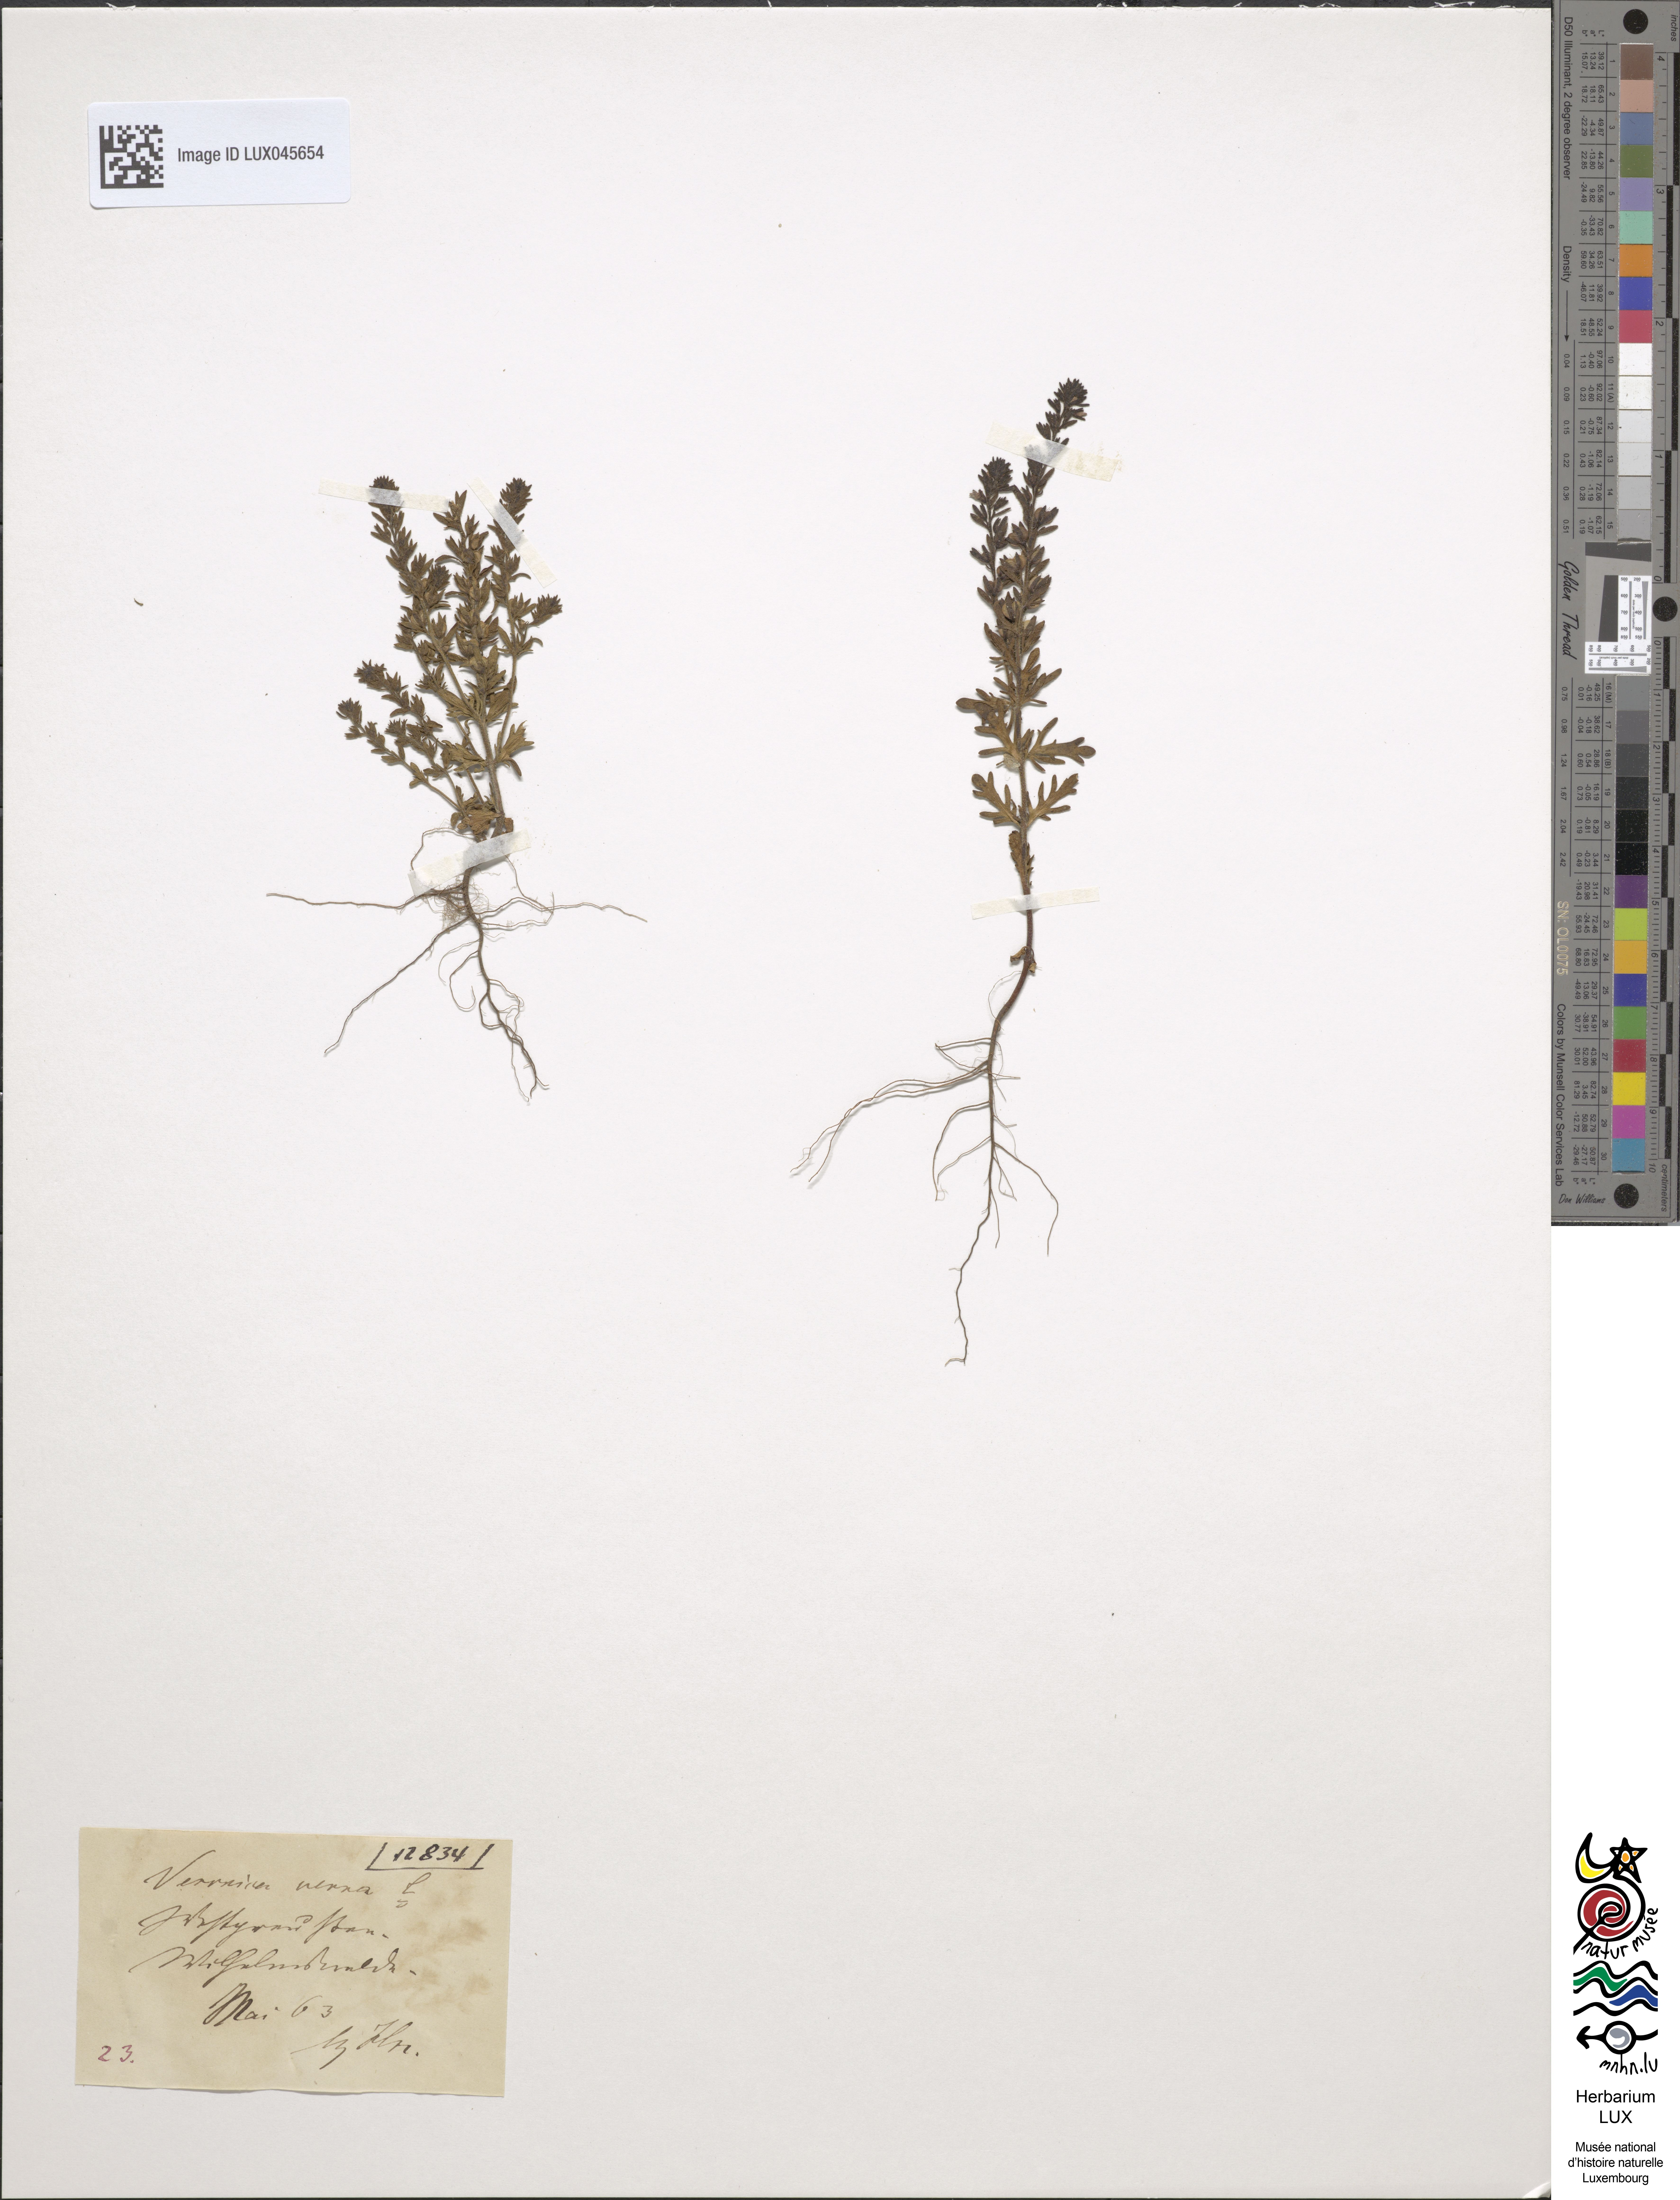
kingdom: Plantae
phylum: Tracheophyta
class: Magnoliopsida
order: Lamiales
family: Plantaginaceae
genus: Veronica
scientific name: Veronica verna
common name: Spring speedwell
